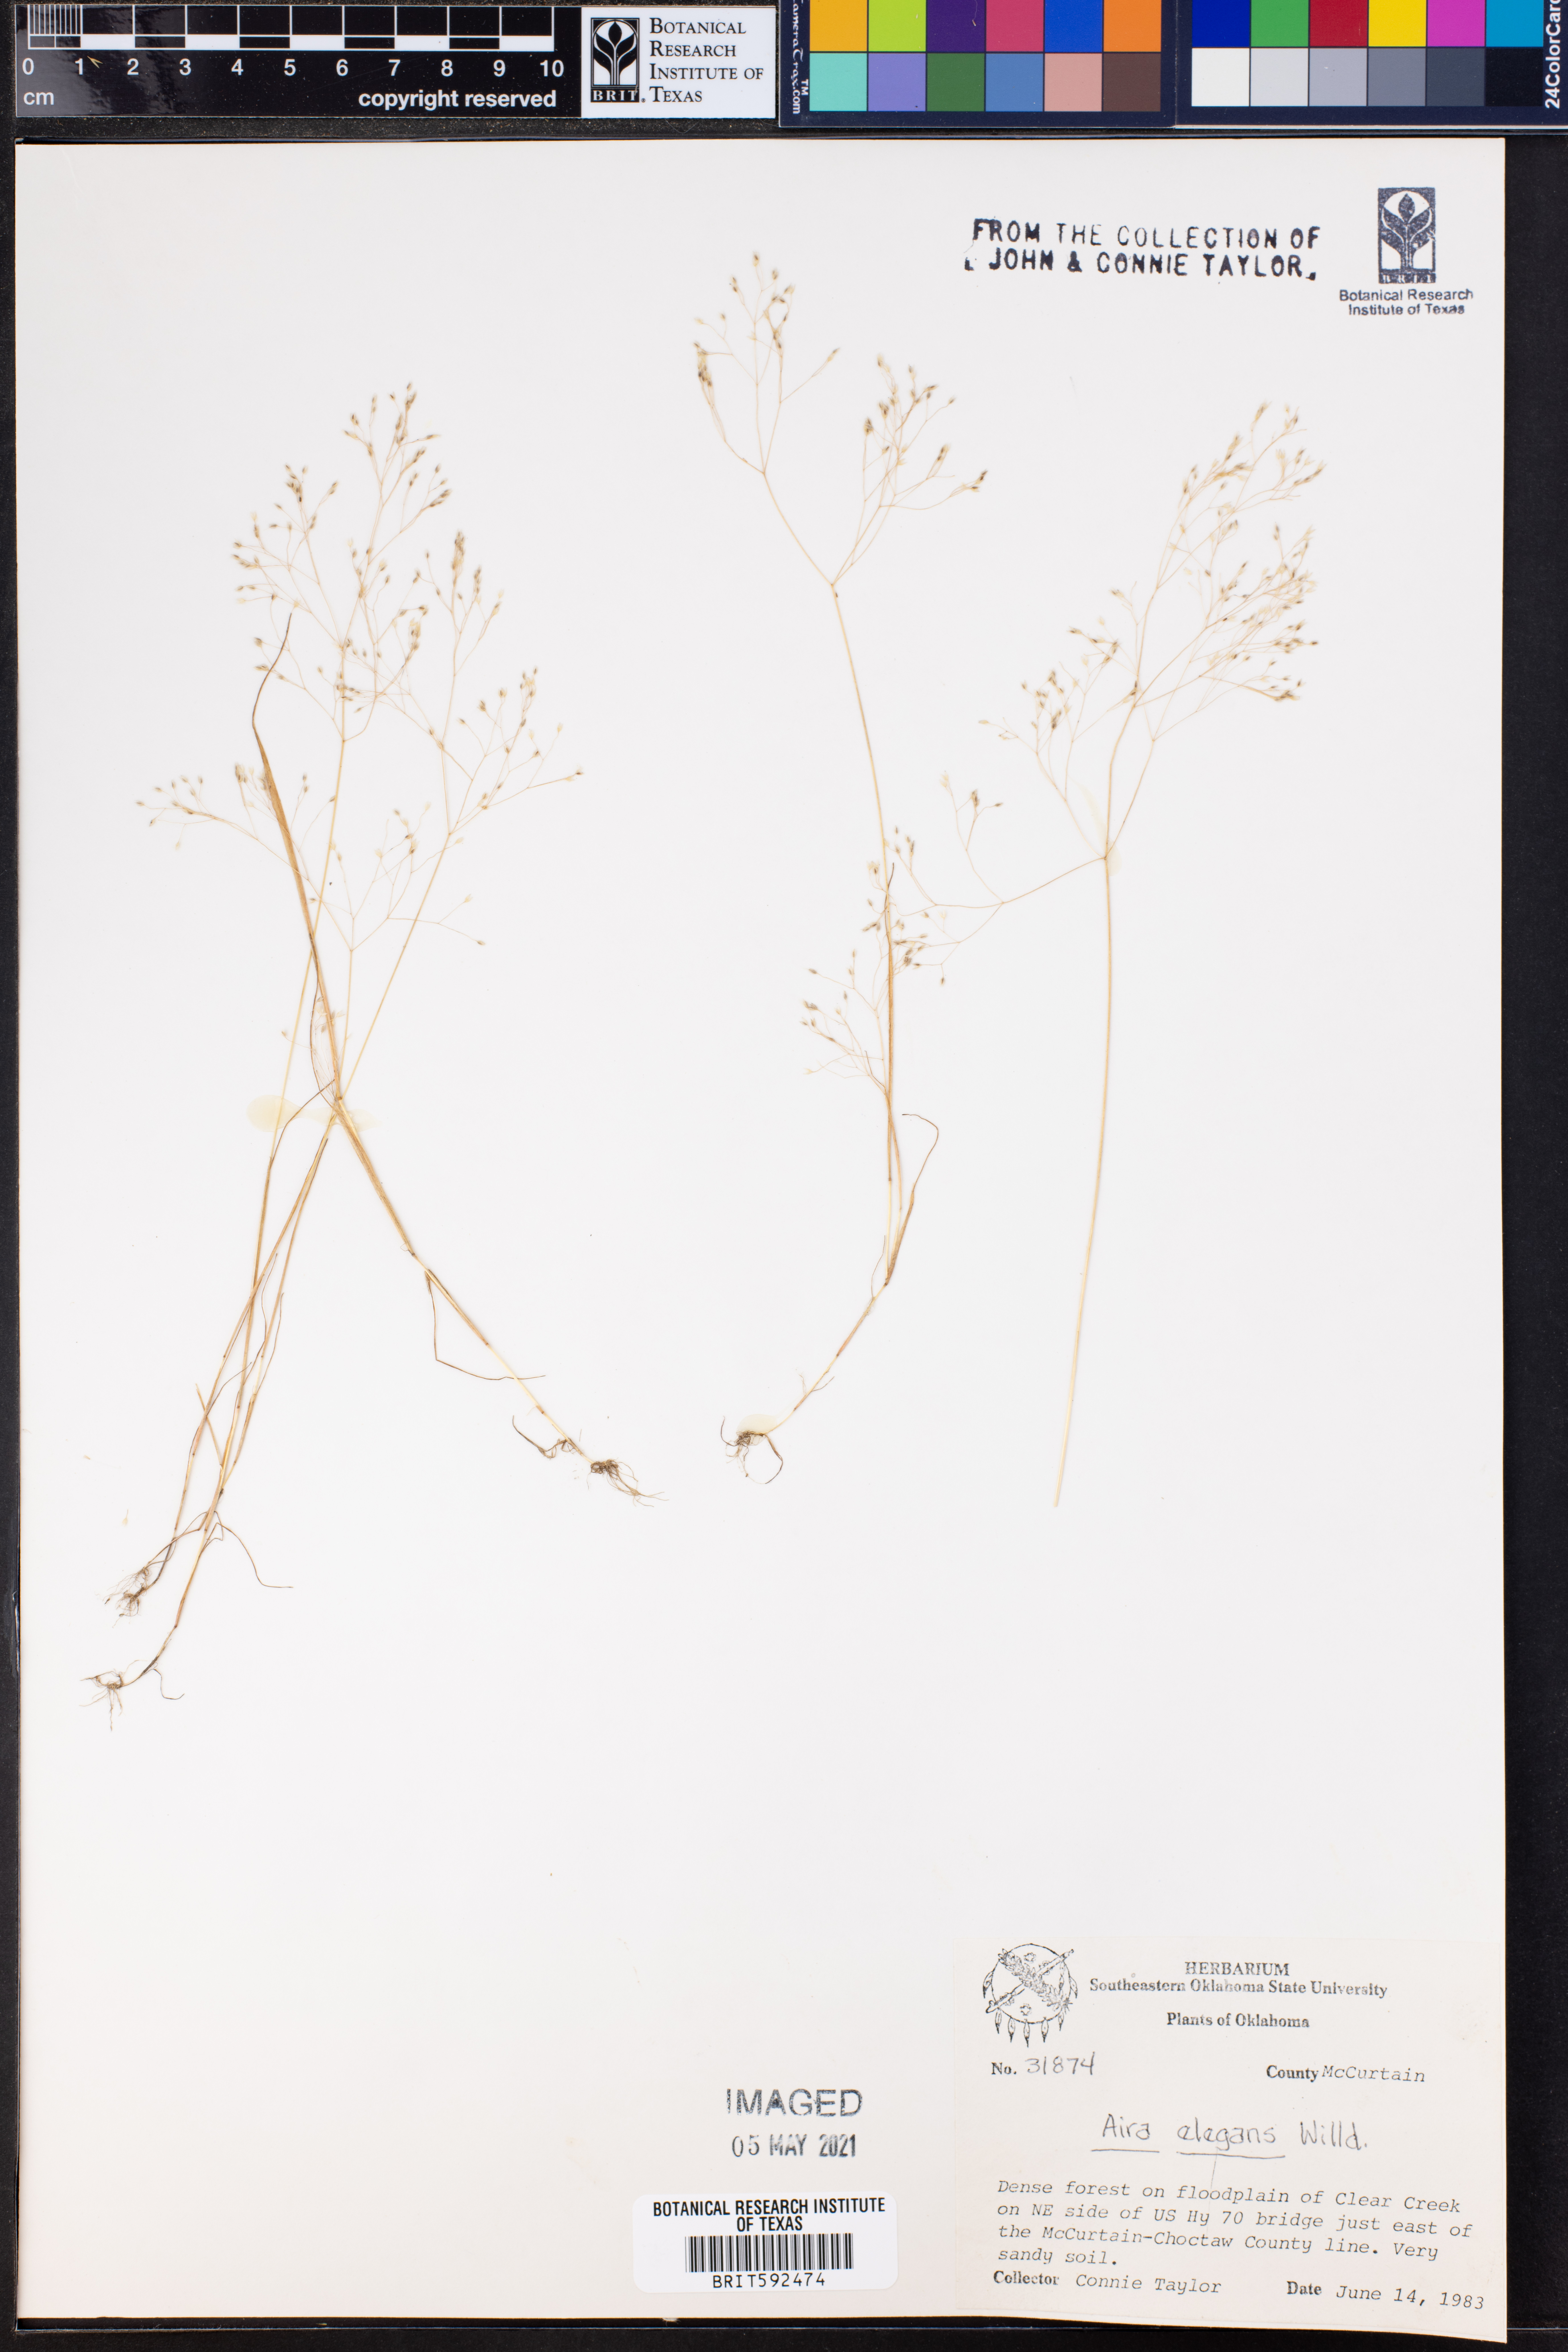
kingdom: Plantae
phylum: Tracheophyta
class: Liliopsida
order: Poales
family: Poaceae
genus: Aira
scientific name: Aira elegans
